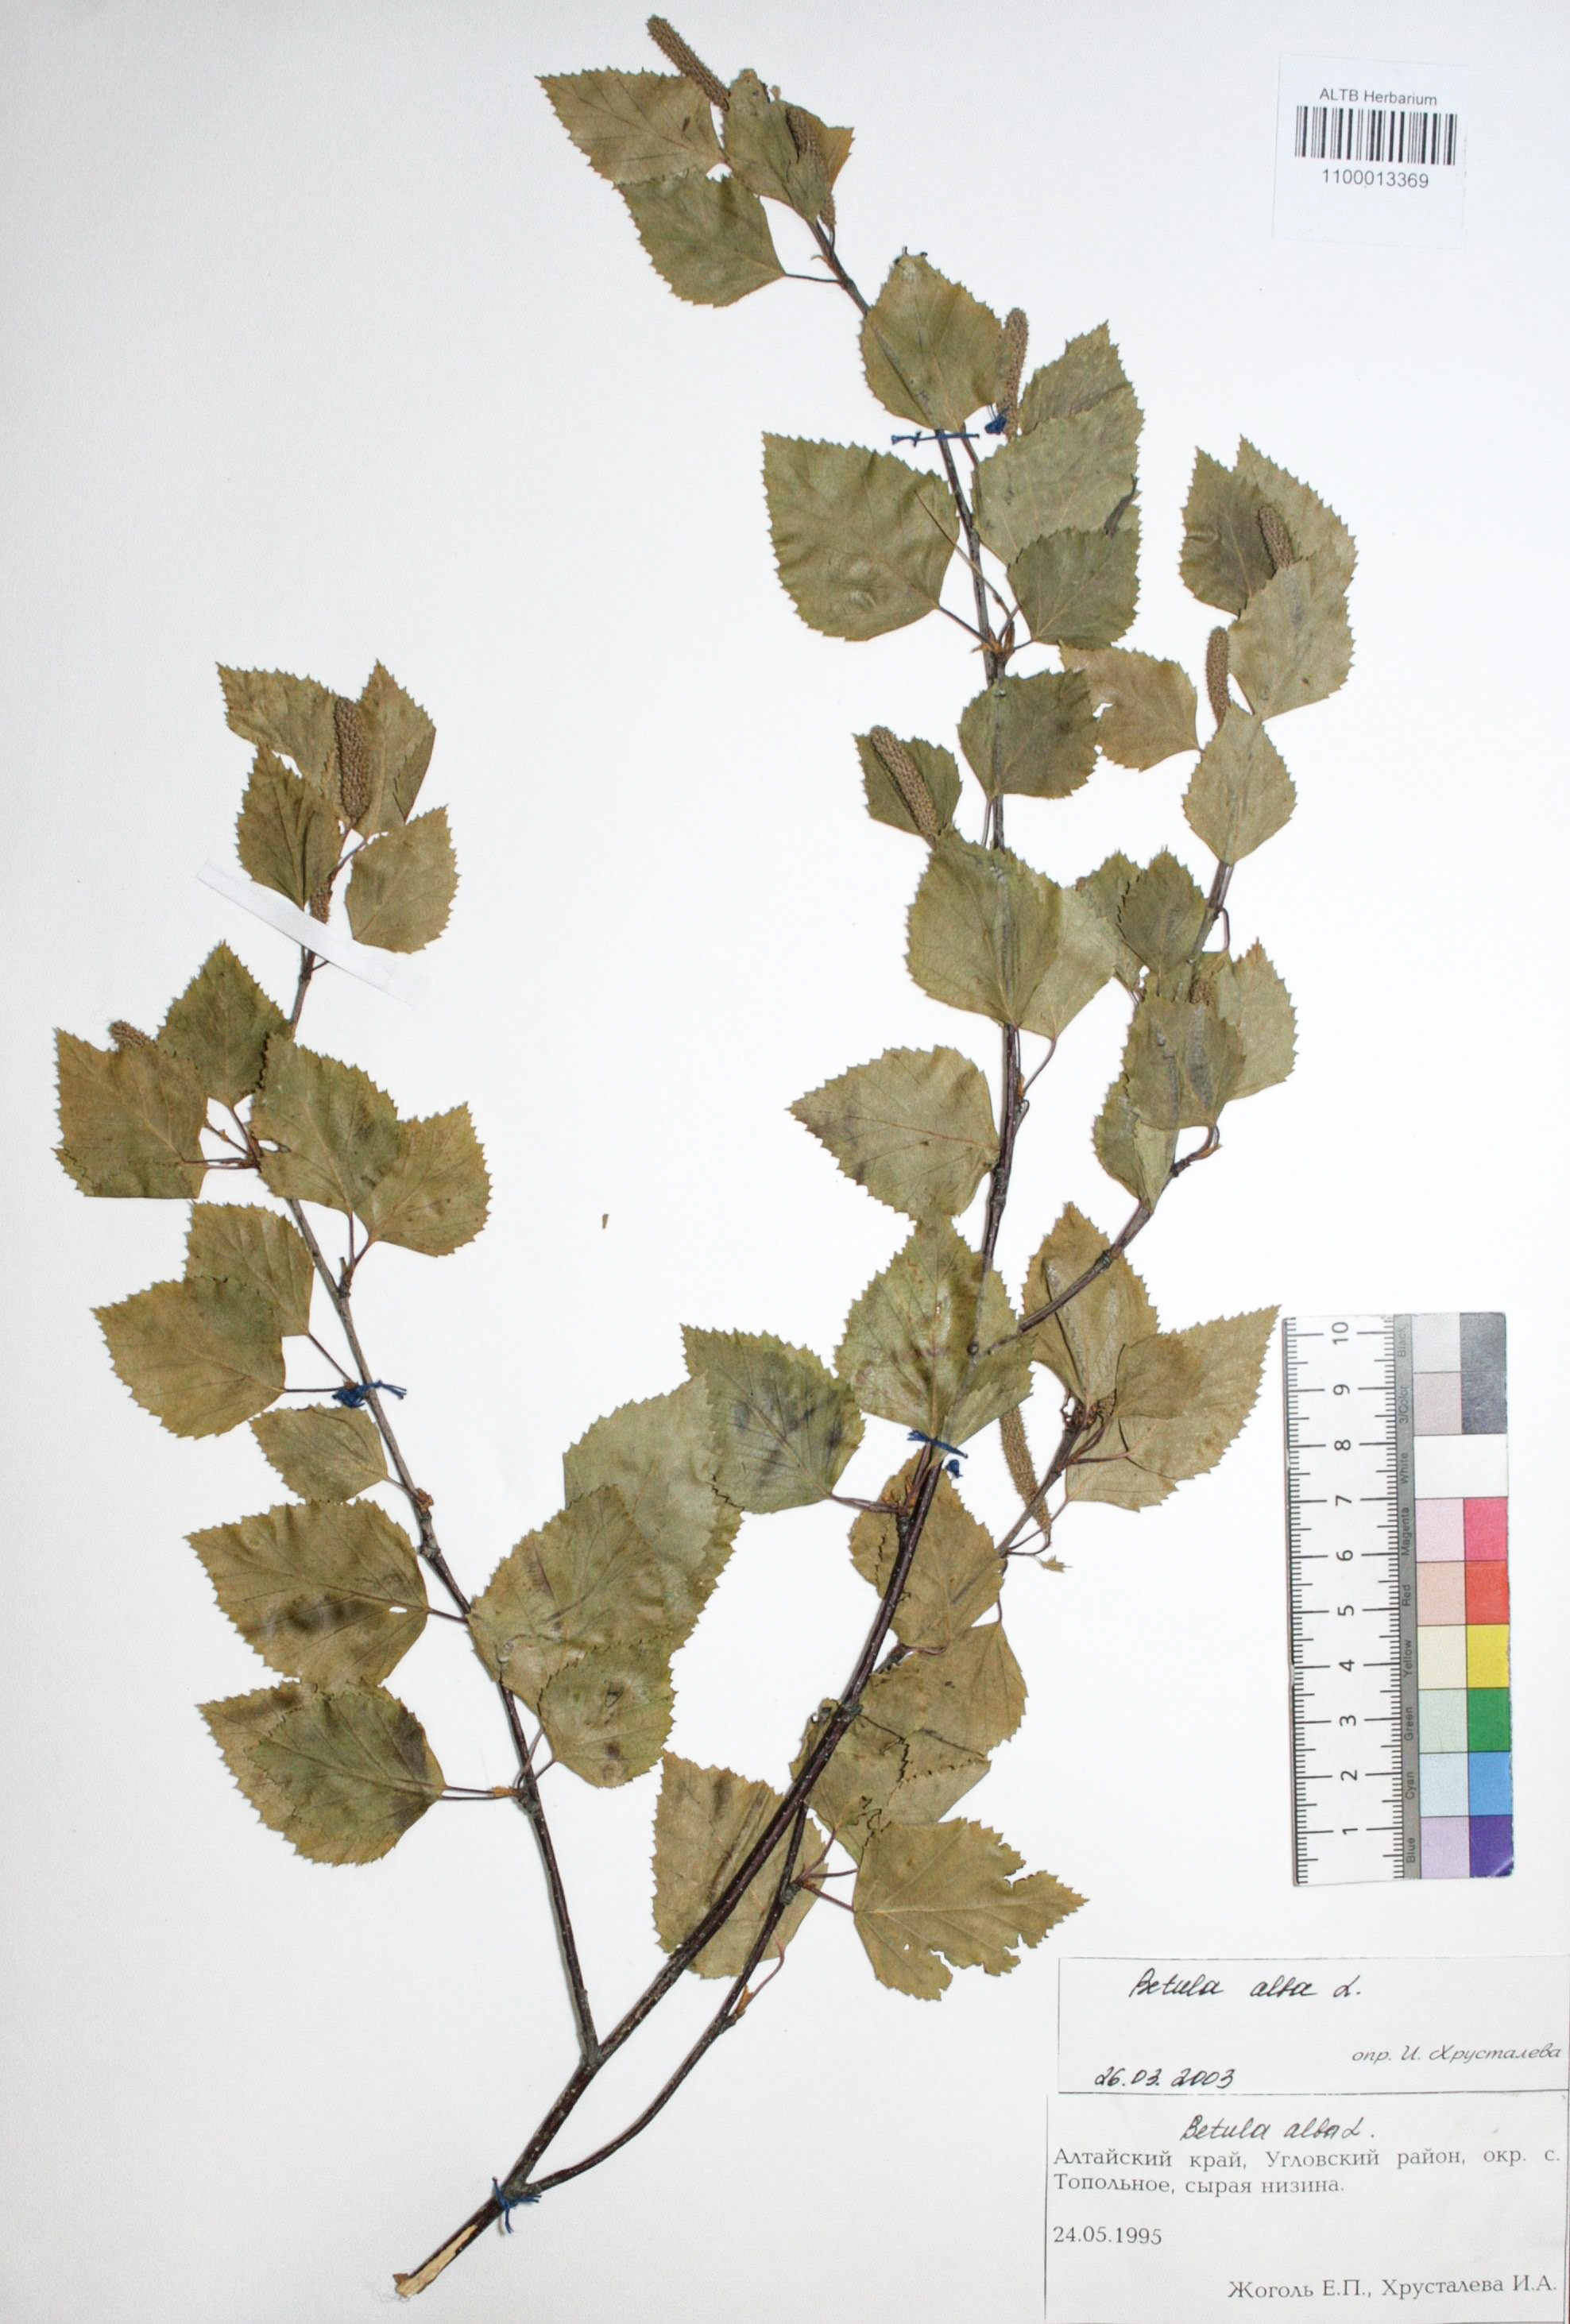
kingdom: Plantae
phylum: Tracheophyta
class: Magnoliopsida
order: Fagales
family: Betulaceae
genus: Betula
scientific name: Betula pubescens
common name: Downy birch
